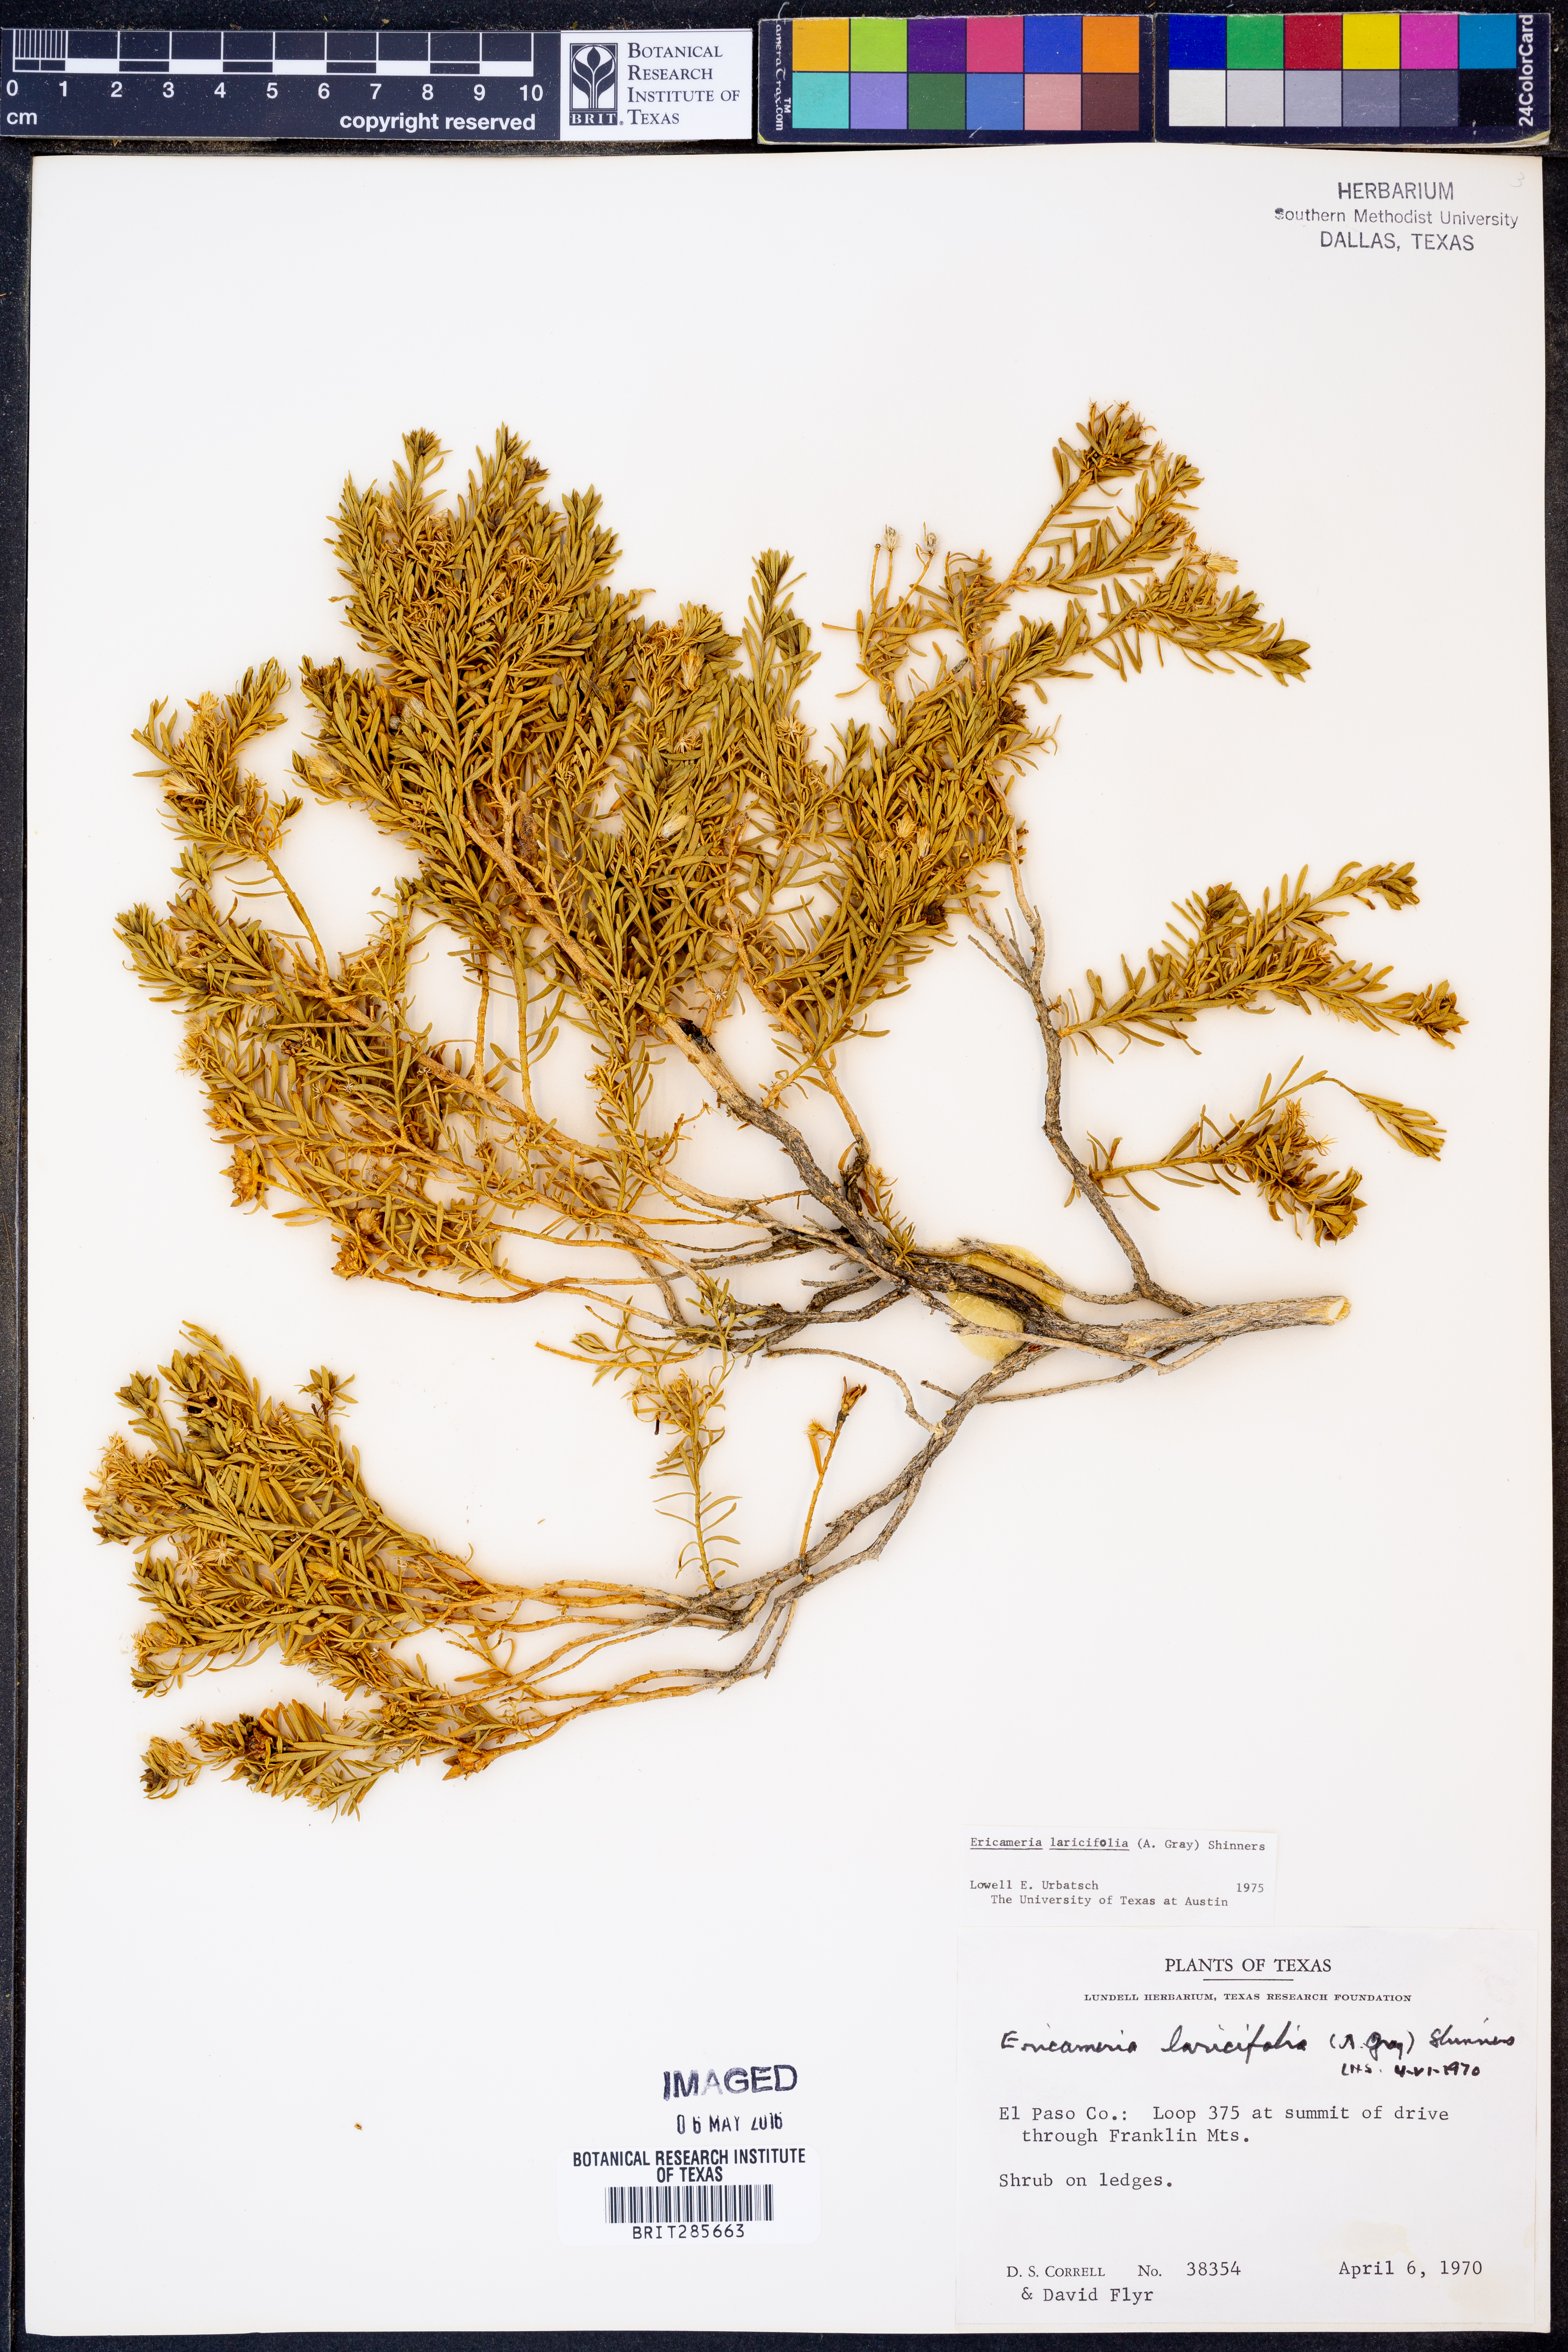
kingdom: Plantae
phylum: Tracheophyta
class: Magnoliopsida
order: Asterales
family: Asteraceae
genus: Ericameria
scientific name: Ericameria laricifolia
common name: Turpentine-bush
